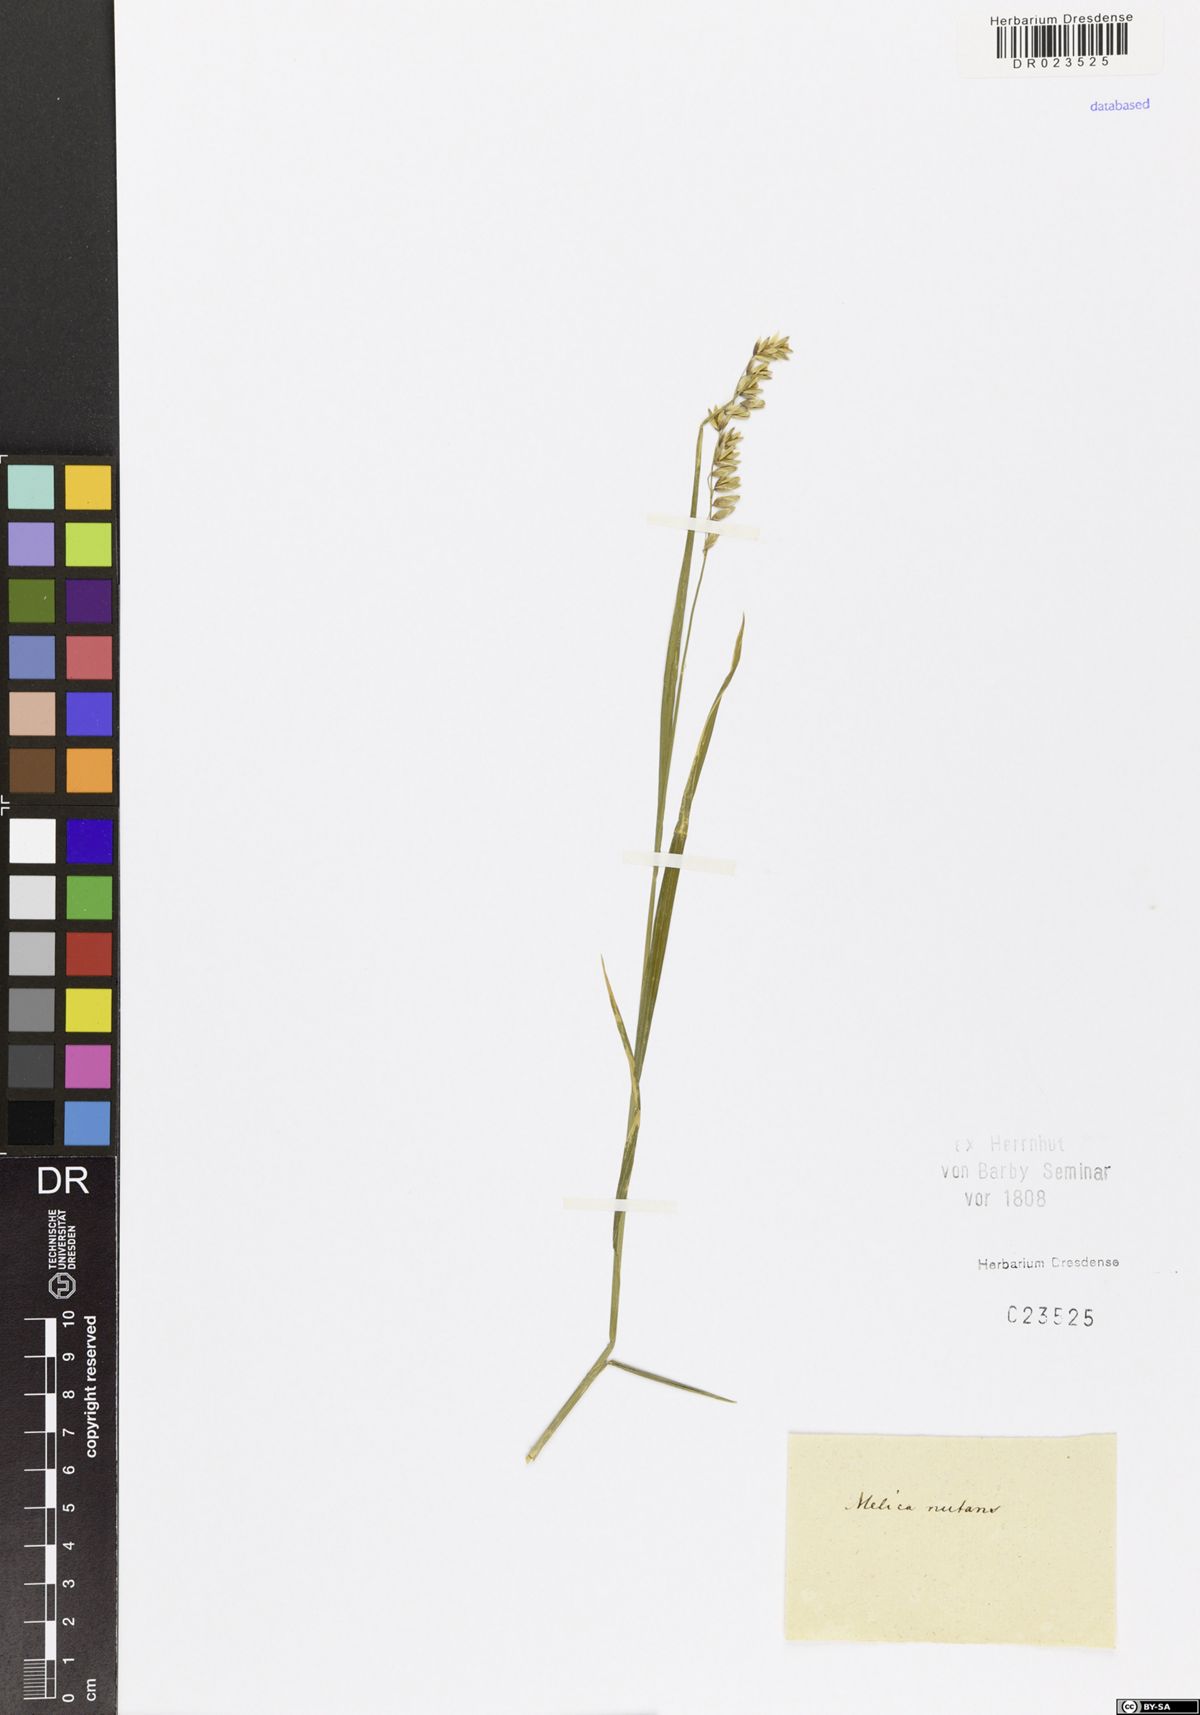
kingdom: Plantae
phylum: Tracheophyta
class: Liliopsida
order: Poales
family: Poaceae
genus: Melica
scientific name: Melica nutans
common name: Mountain melick
